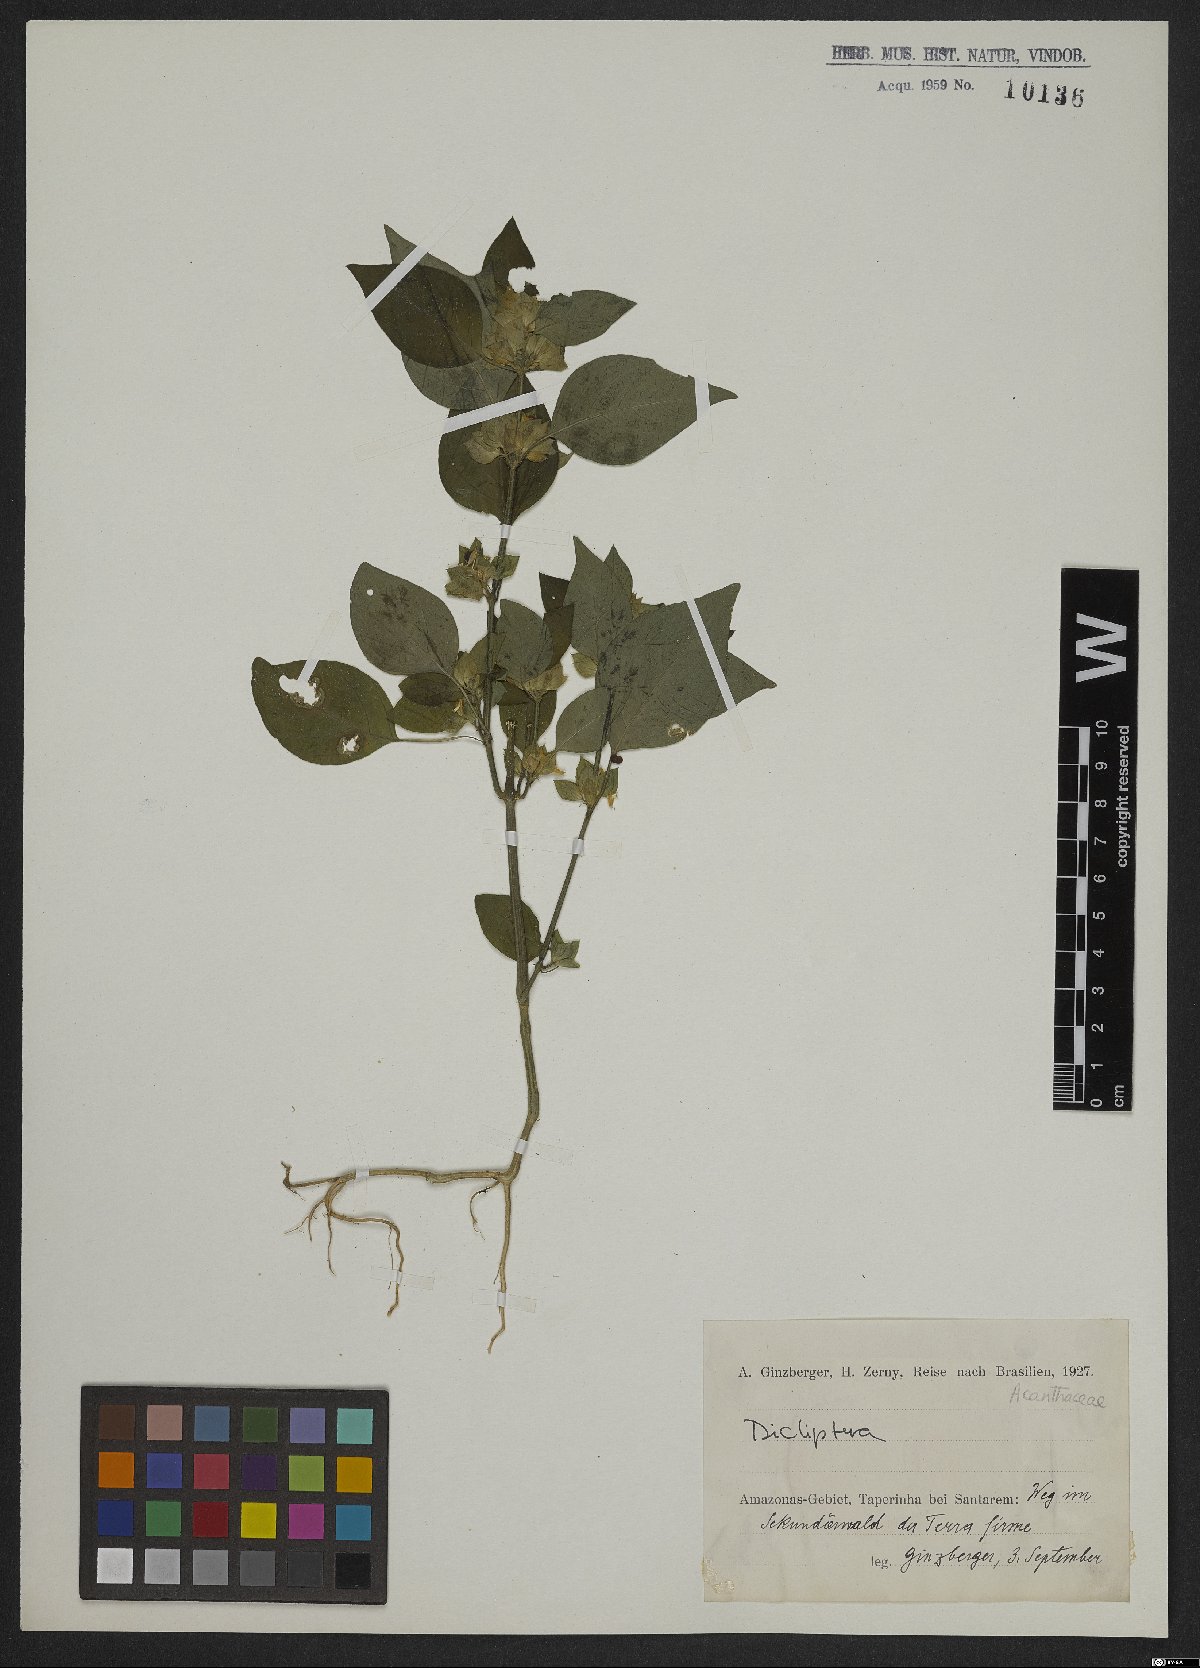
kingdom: Plantae
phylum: Tracheophyta
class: Magnoliopsida
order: Lamiales
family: Acanthaceae
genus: Dicliptera
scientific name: Dicliptera
